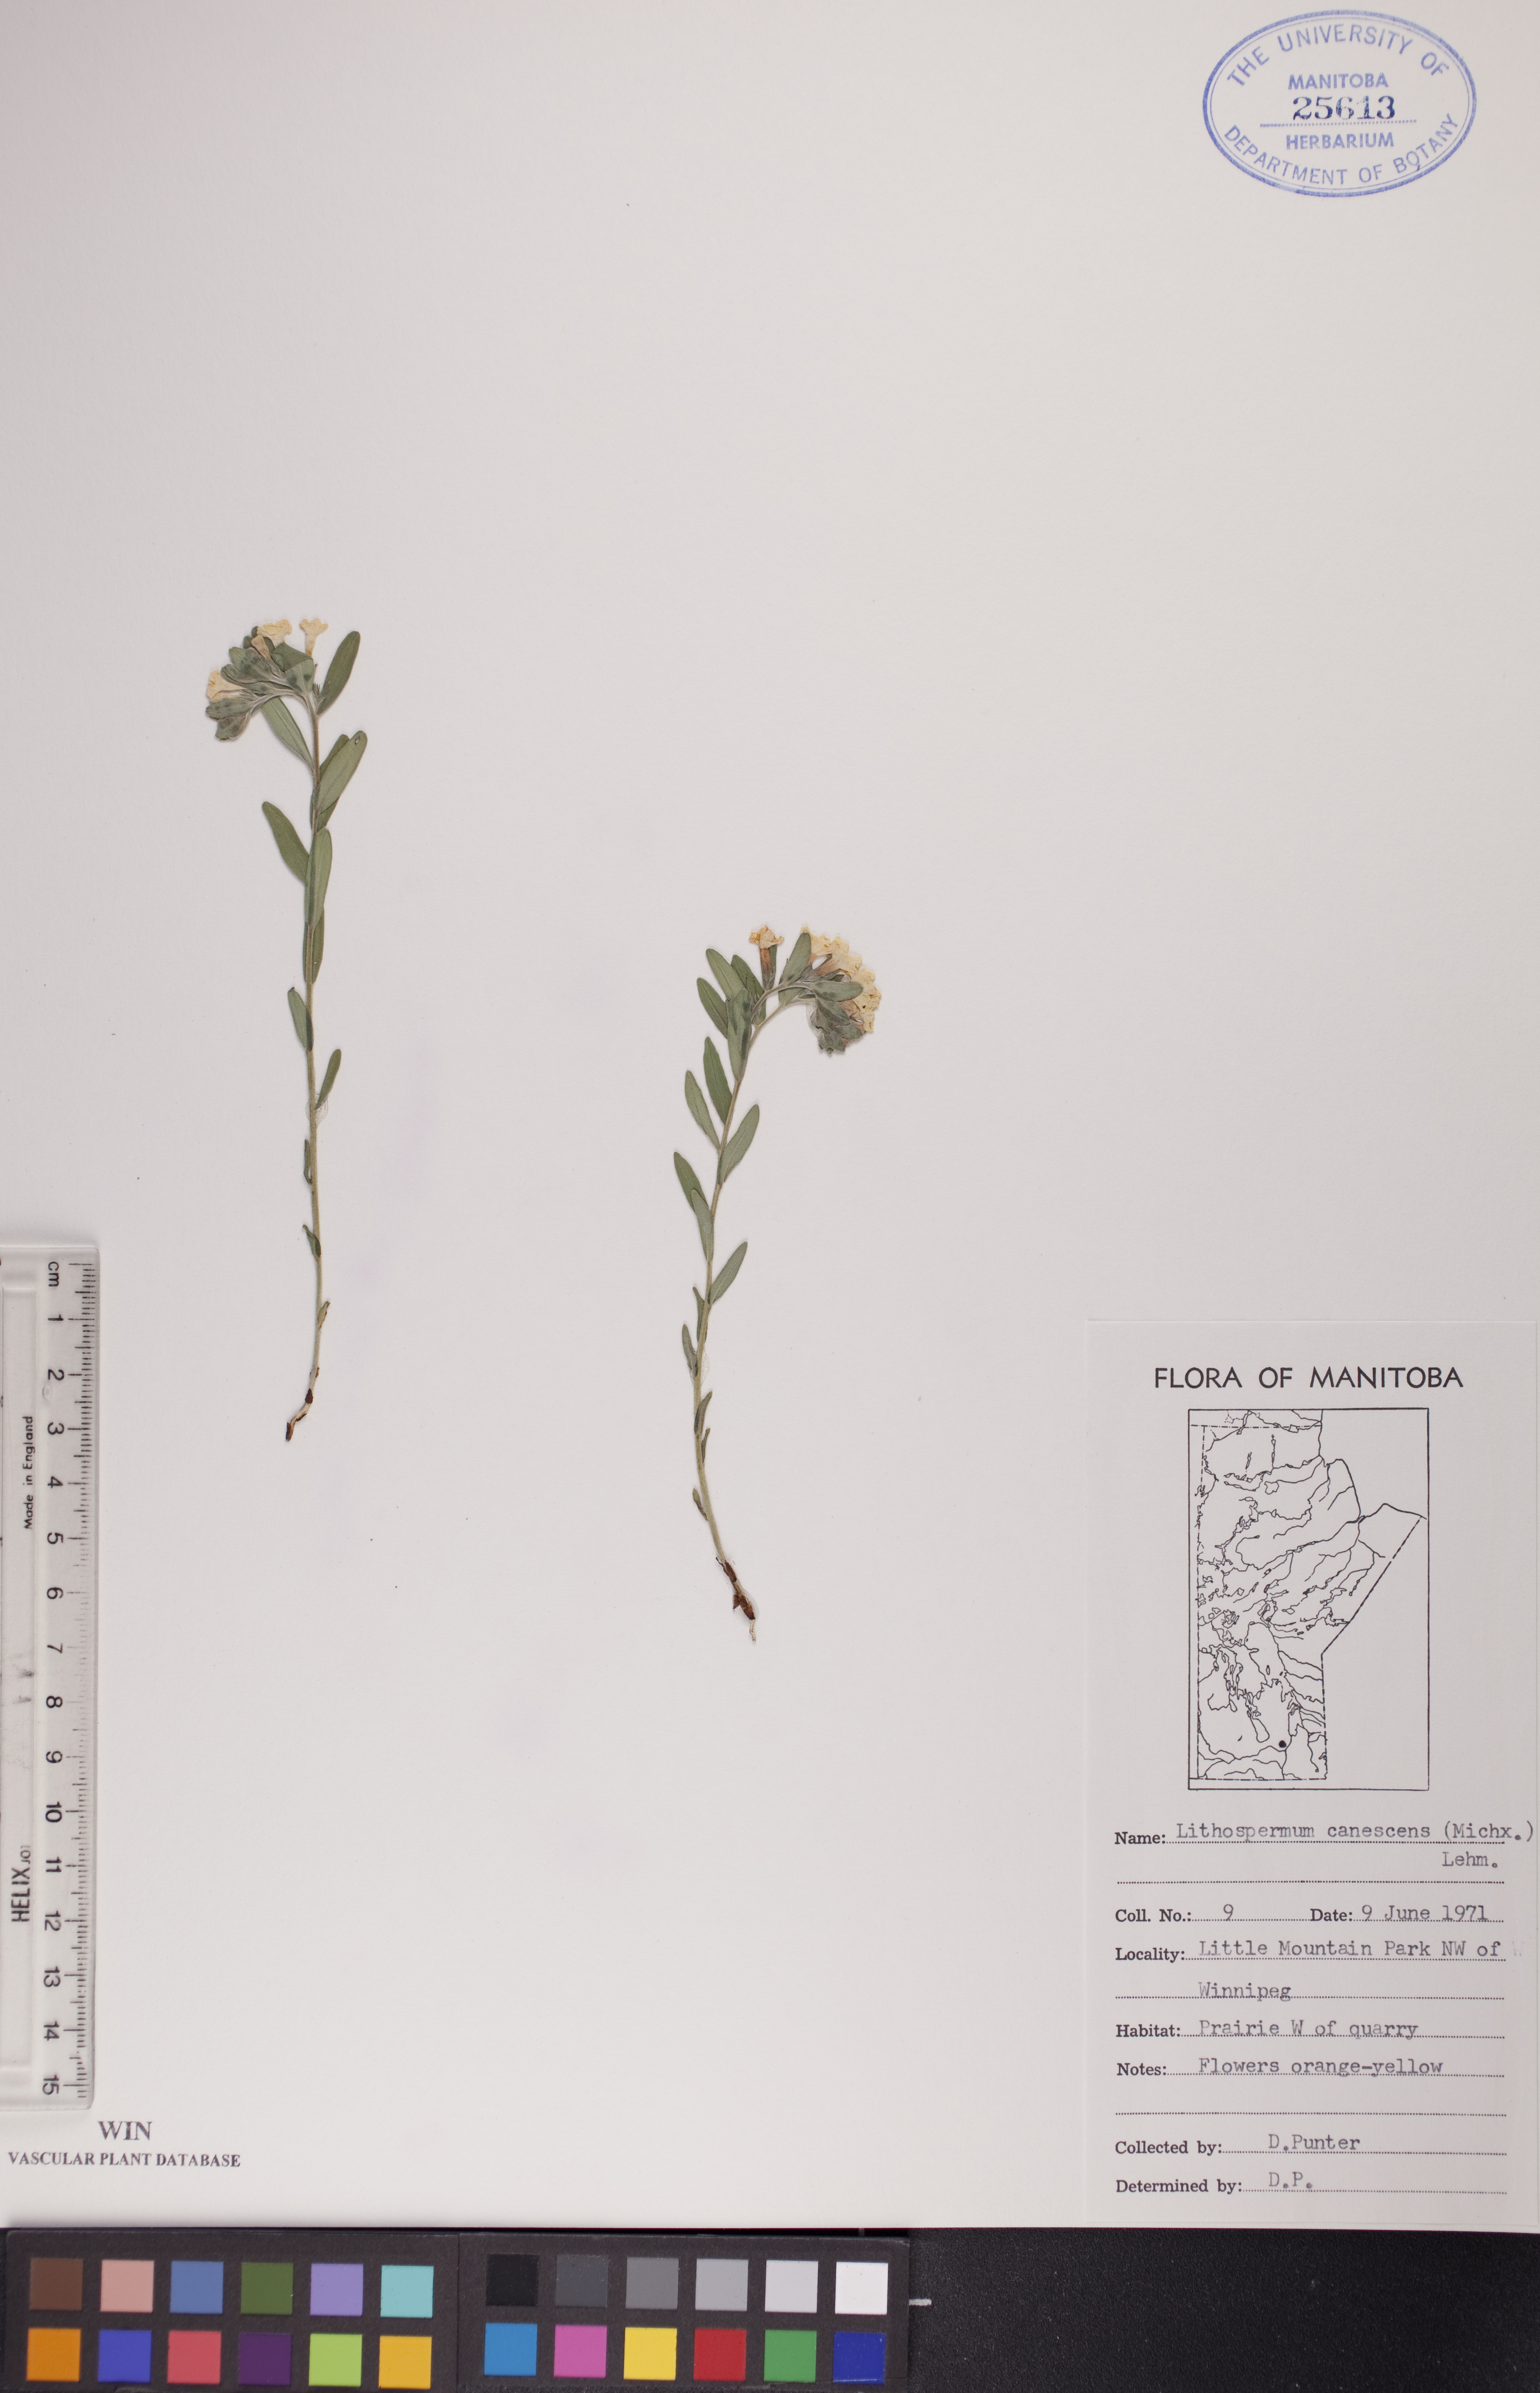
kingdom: Plantae
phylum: Tracheophyta
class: Magnoliopsida
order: Boraginales
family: Boraginaceae
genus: Lithospermum
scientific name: Lithospermum canescens
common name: Hoary puccoon
